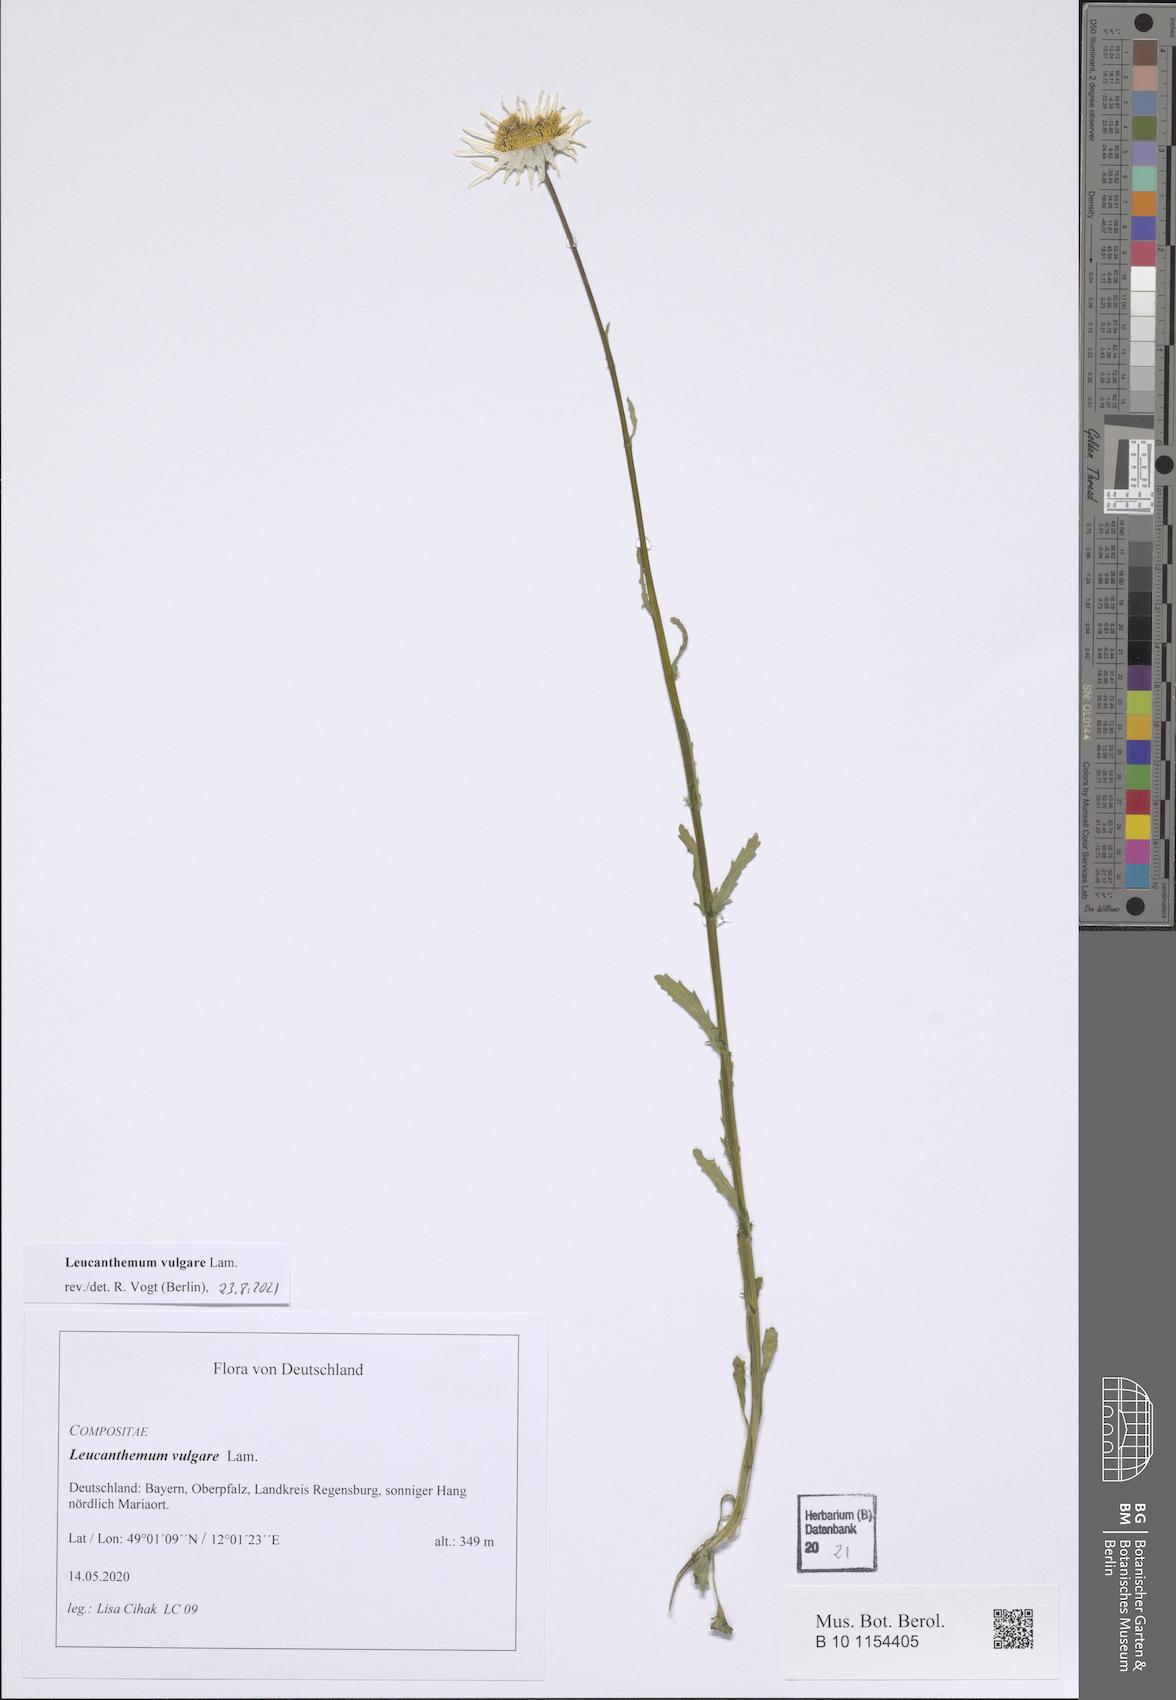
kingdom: Plantae
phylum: Tracheophyta
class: Magnoliopsida
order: Asterales
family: Asteraceae
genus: Leucanthemum
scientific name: Leucanthemum vulgare
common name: Oxeye daisy
